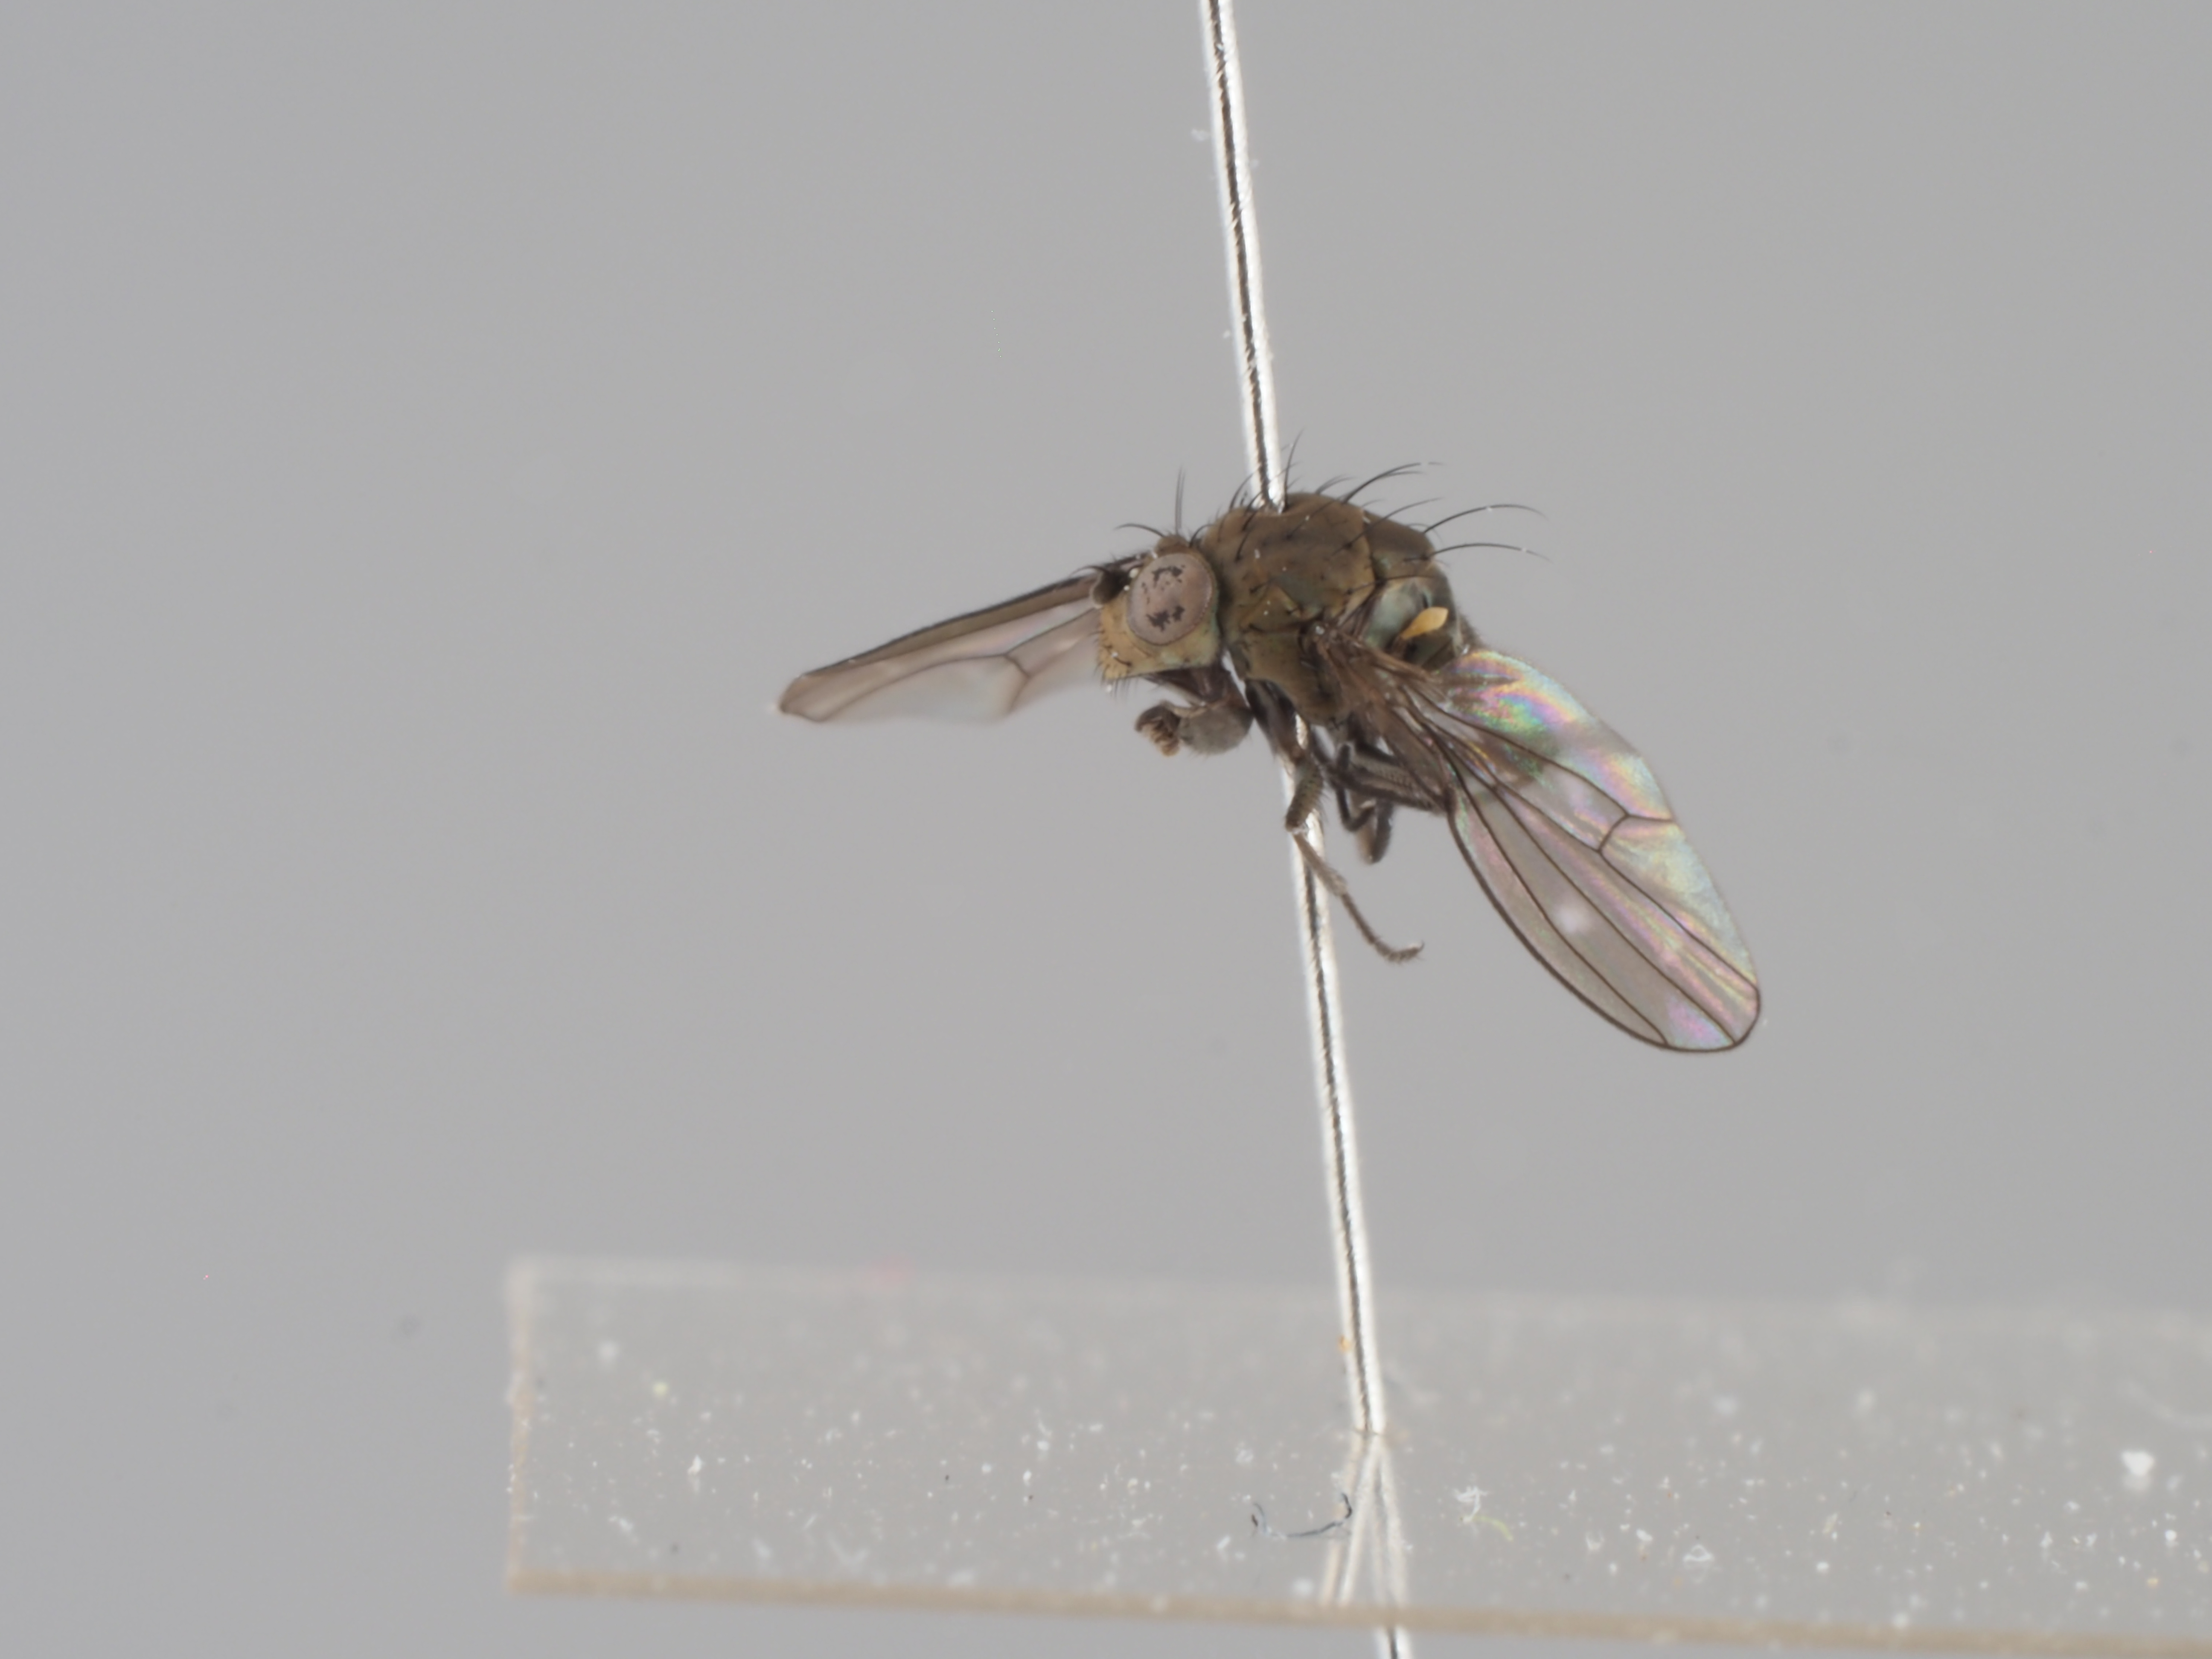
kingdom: Animalia
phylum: Arthropoda
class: Insecta
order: Diptera
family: Ephydridae
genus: Scatella
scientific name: Scatella stagnalis
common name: Shore fly
